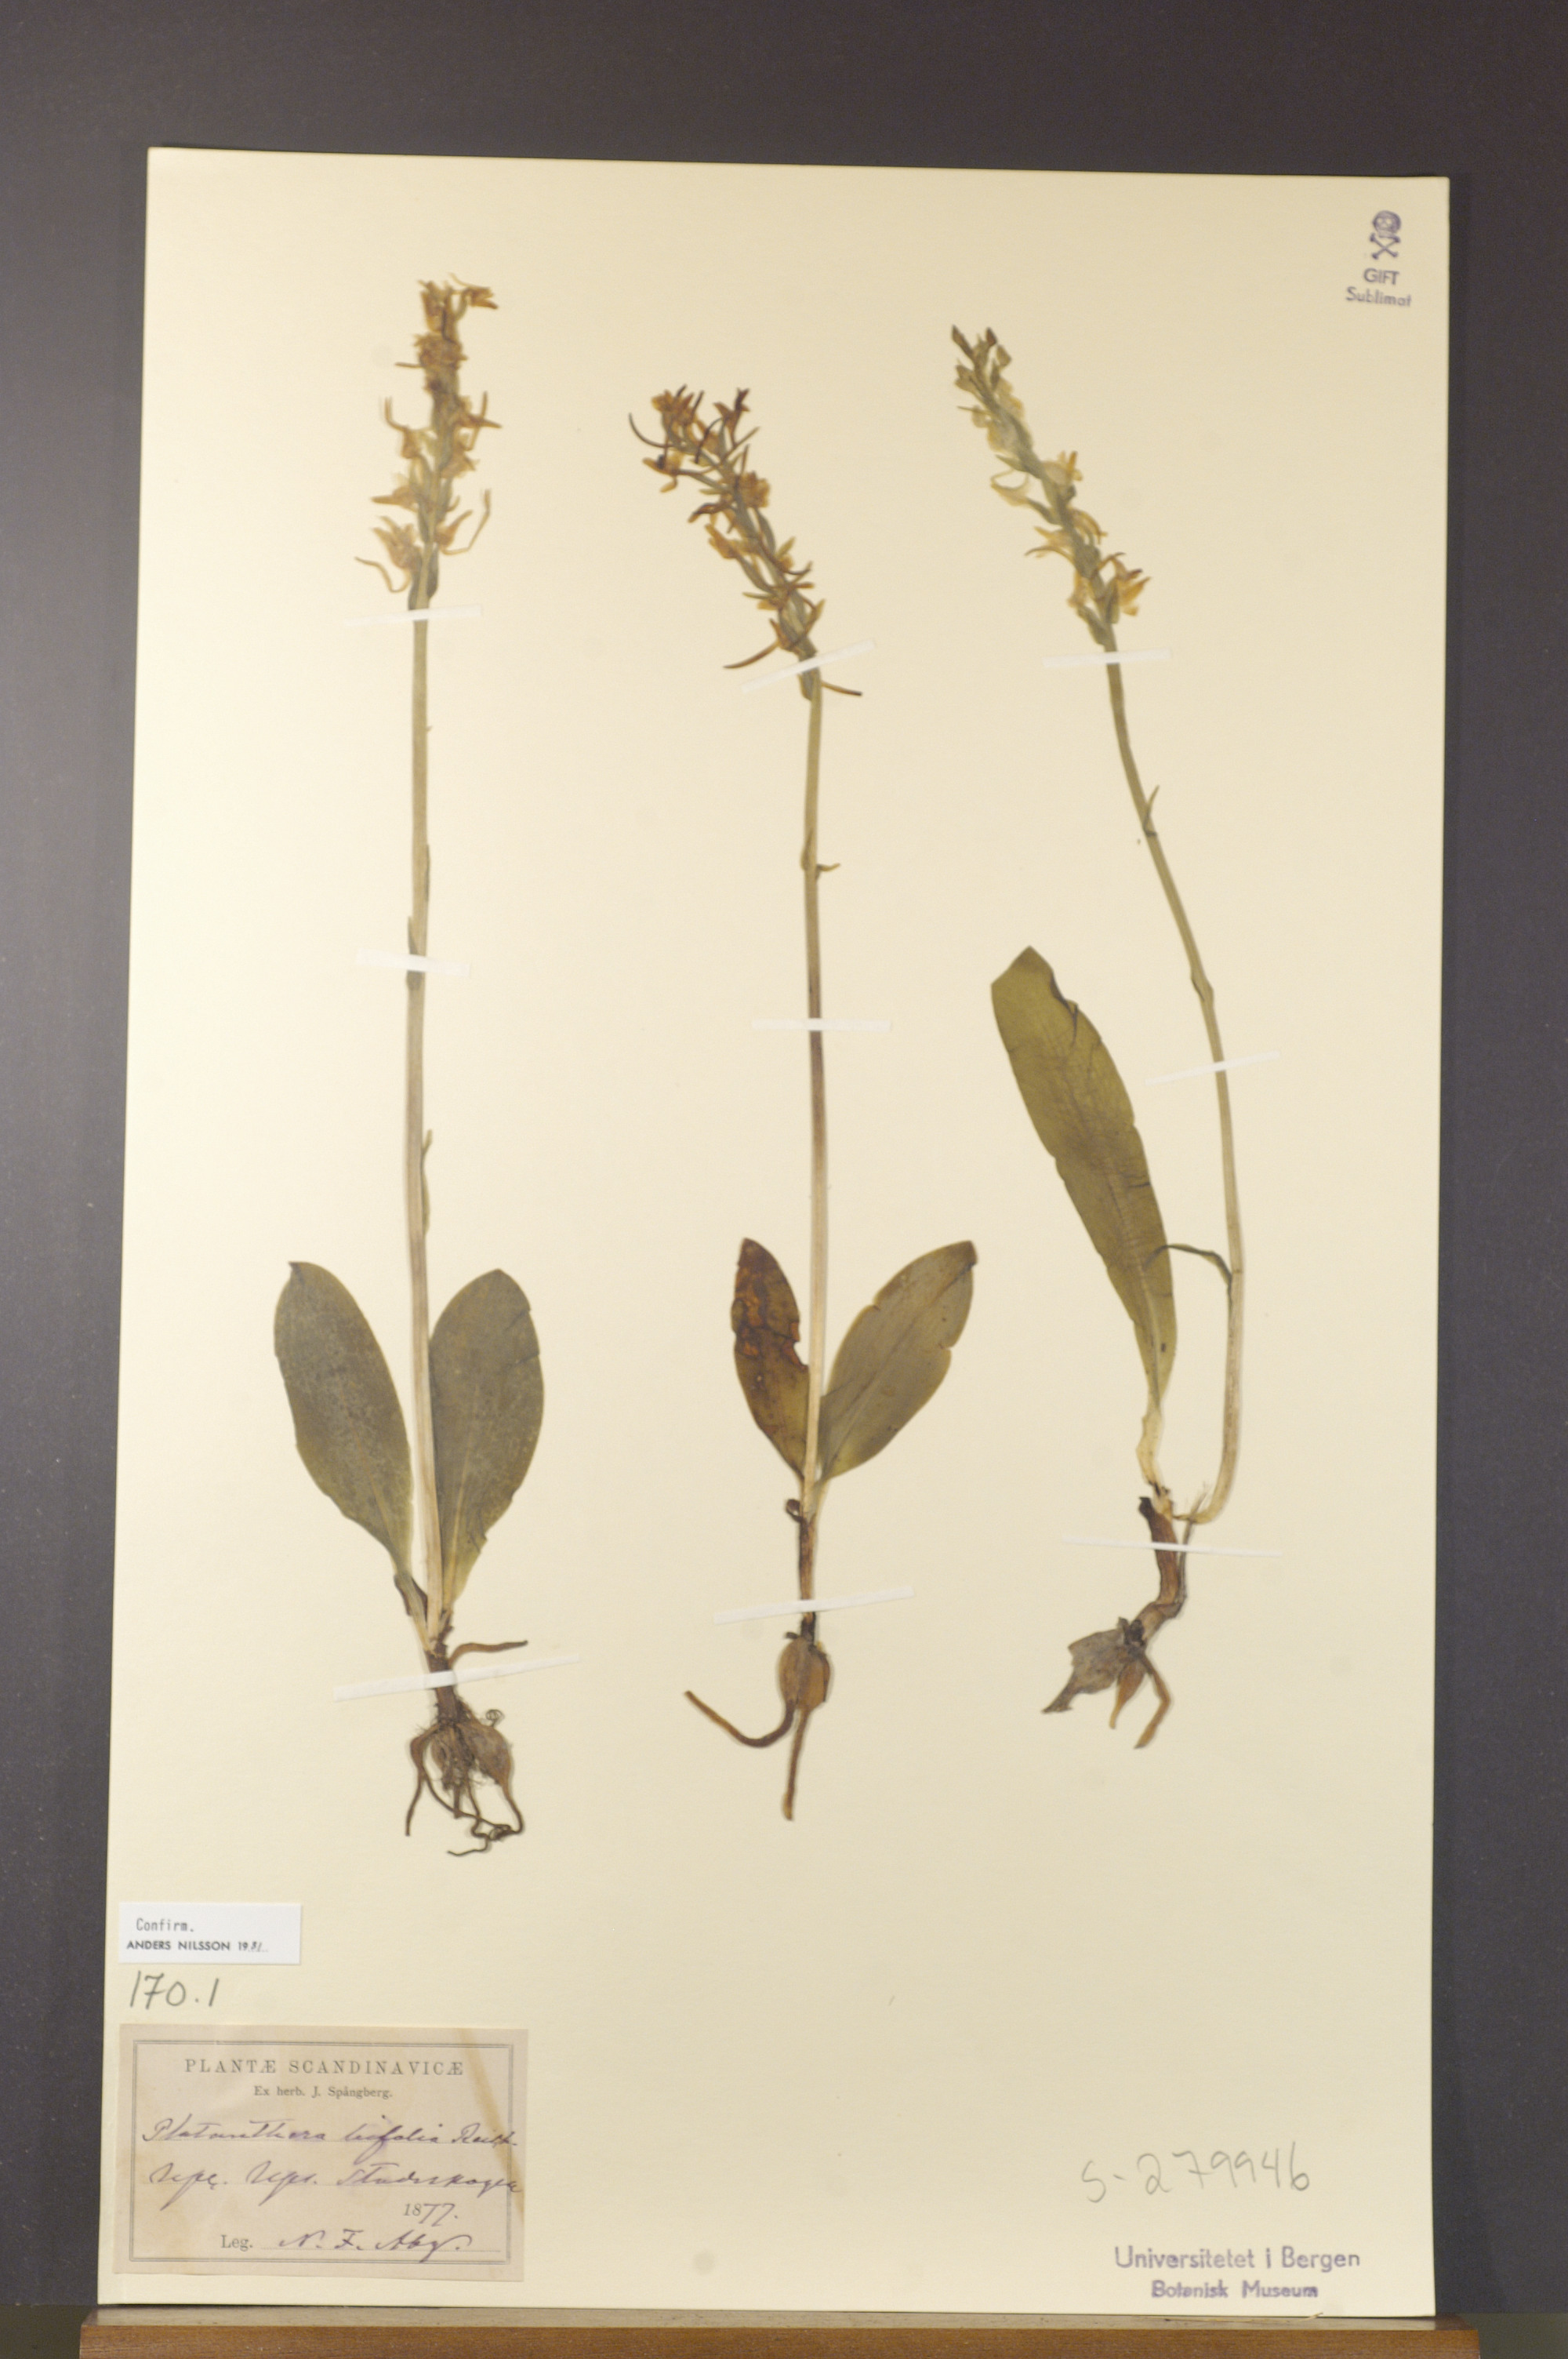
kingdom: Plantae
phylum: Tracheophyta
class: Liliopsida
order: Asparagales
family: Orchidaceae
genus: Platanthera
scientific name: Platanthera bifolia
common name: Lesser butterfly-orchid
